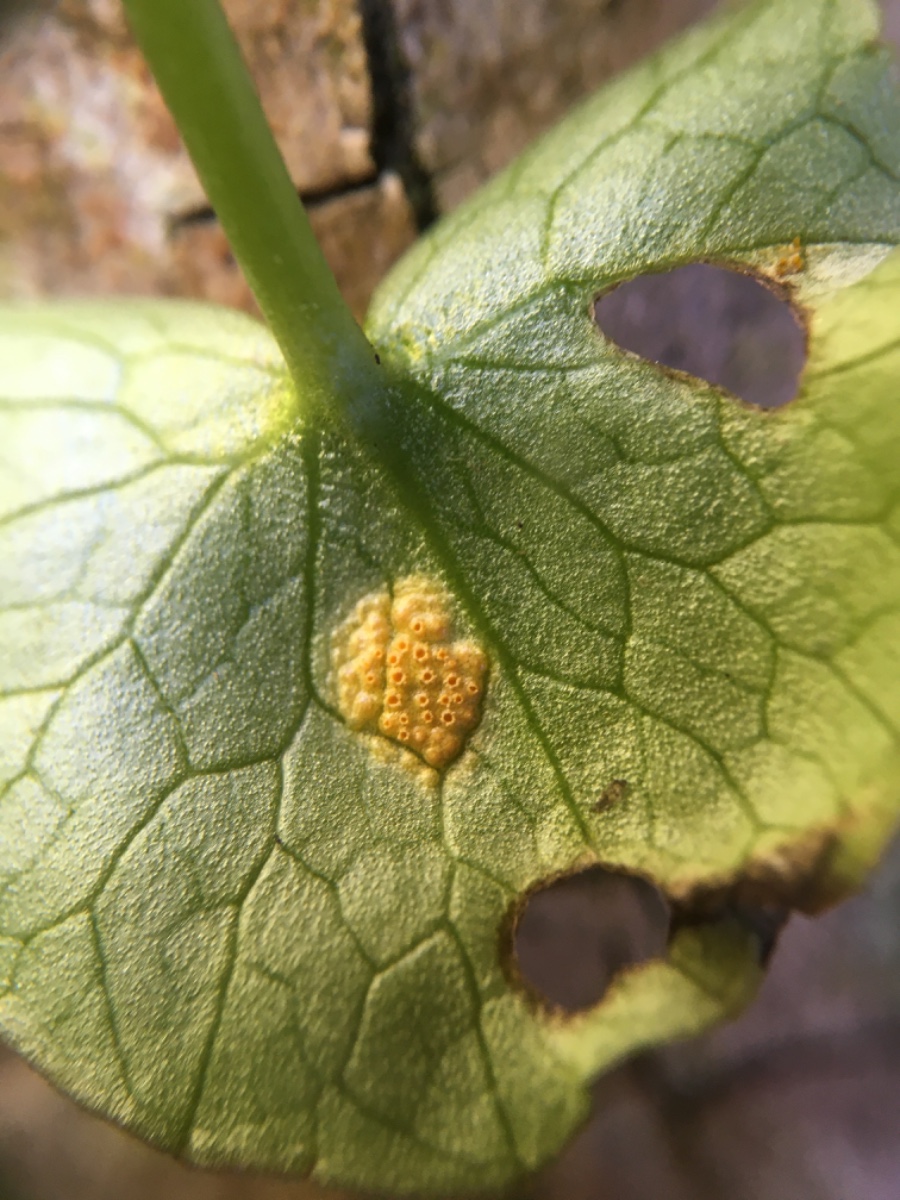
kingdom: Fungi
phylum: Basidiomycota
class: Pucciniomycetes
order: Pucciniales
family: Pucciniaceae
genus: Uromyces
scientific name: Uromyces dactylidis
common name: ranunkel-encellerust
